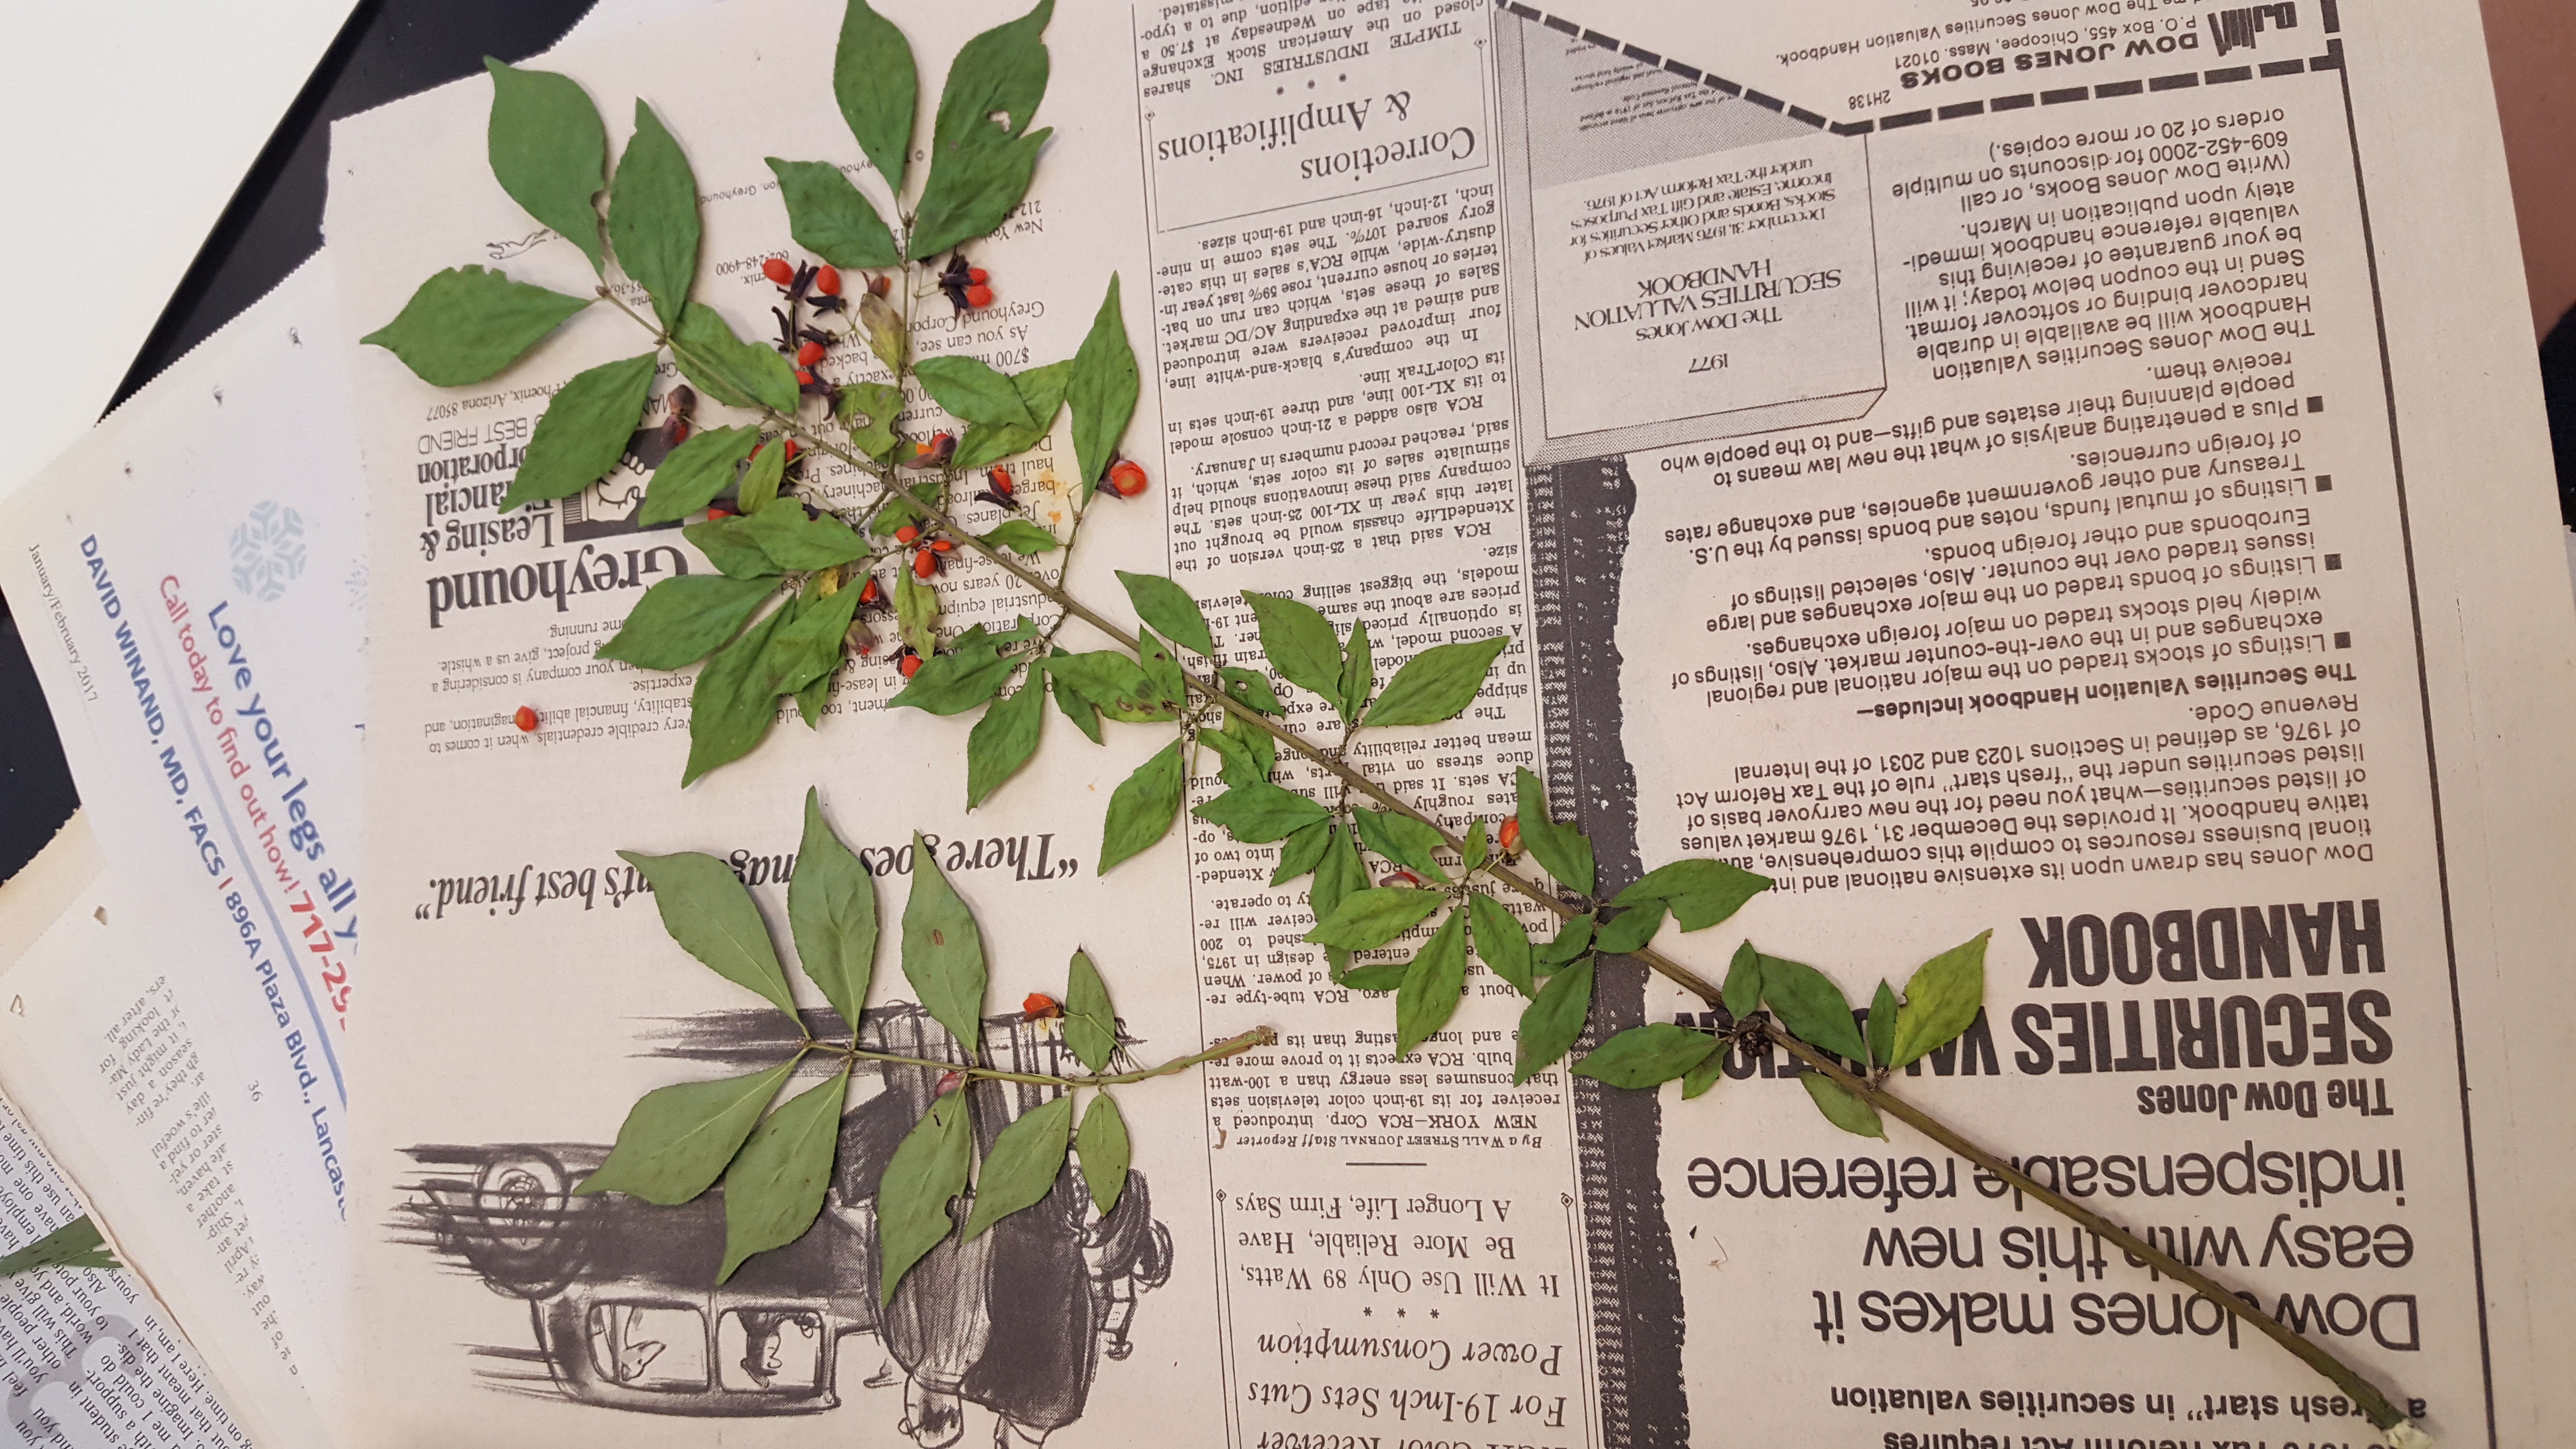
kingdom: Plantae
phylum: Tracheophyta
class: Magnoliopsida
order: Celastrales
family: Celastraceae
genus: Euonymus
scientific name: Euonymus alatus
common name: Burning Bush
